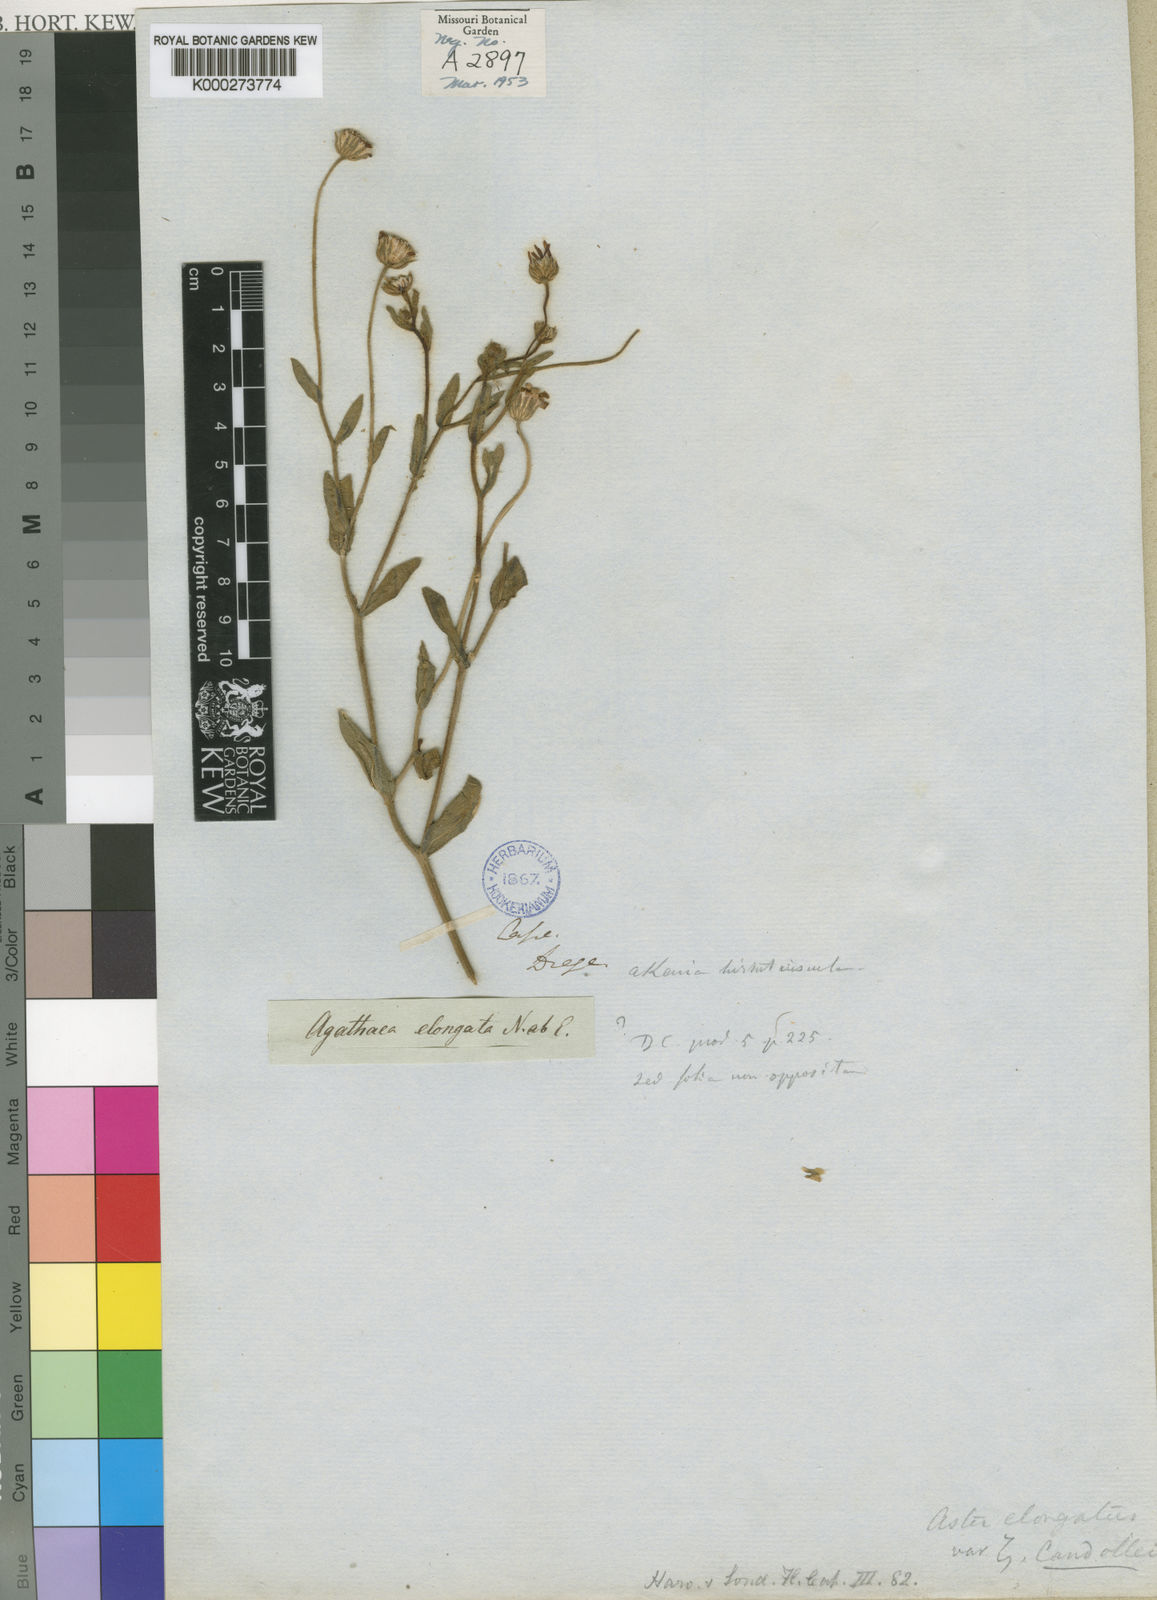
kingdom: Plantae
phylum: Tracheophyta
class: Magnoliopsida
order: Asterales
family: Asteraceae
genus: Felicia
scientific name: Felicia elongata
